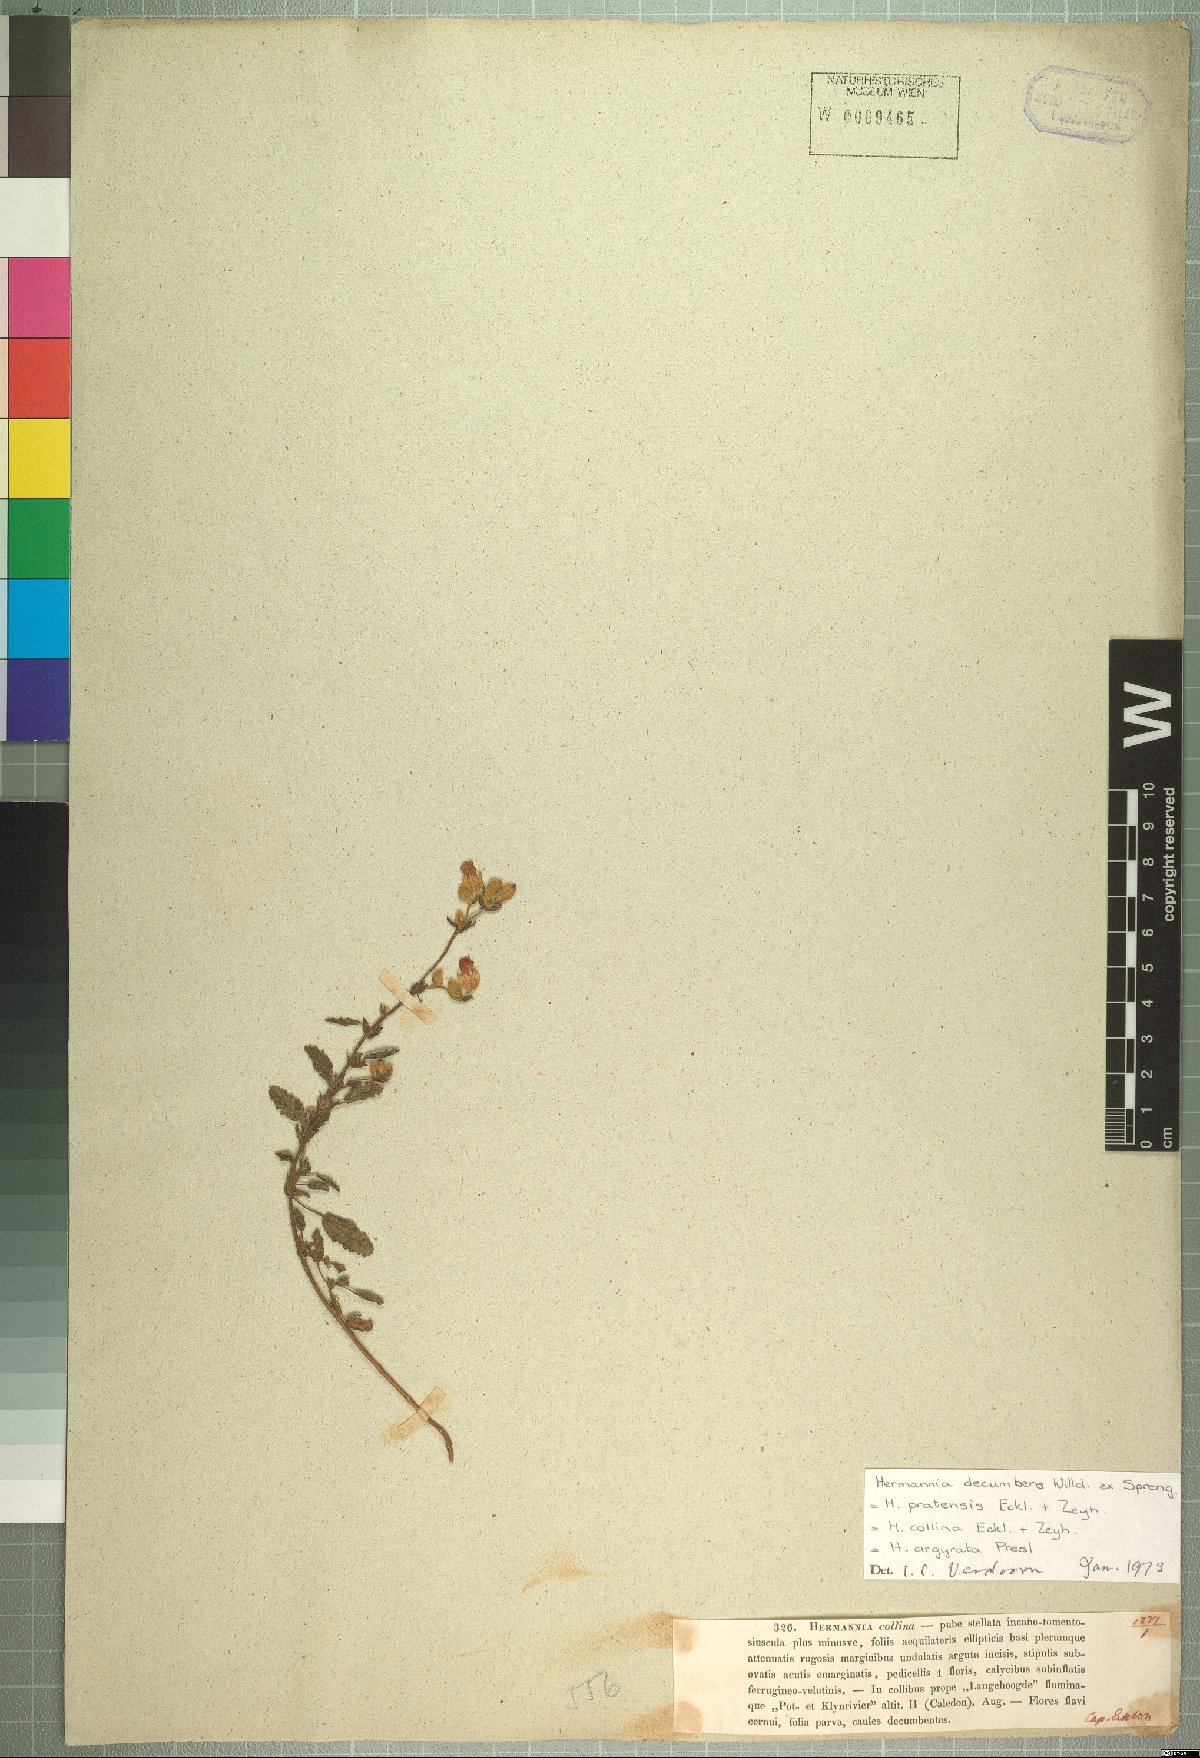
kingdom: Plantae
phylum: Tracheophyta
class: Magnoliopsida
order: Malvales
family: Malvaceae
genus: Hermannia
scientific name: Hermannia decumbens
